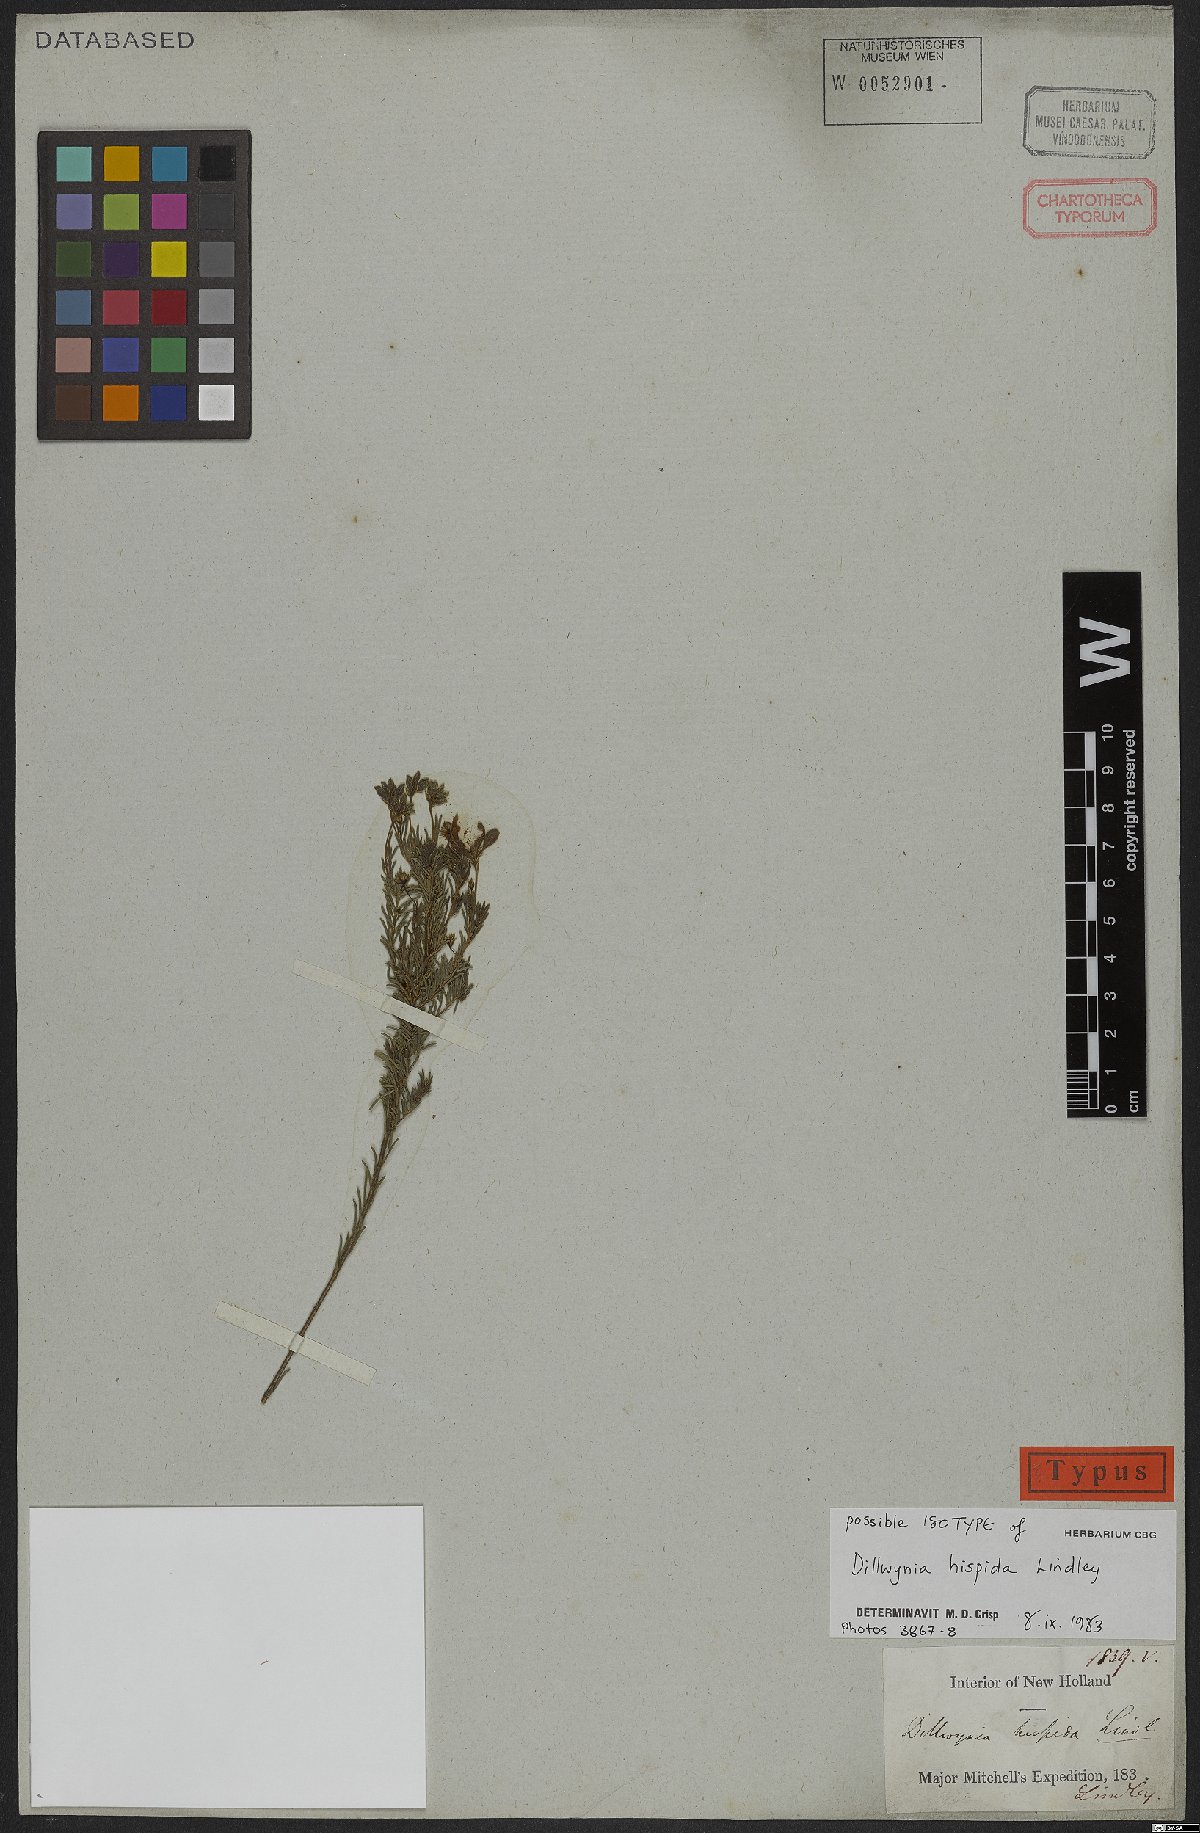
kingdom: Plantae
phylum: Tracheophyta
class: Magnoliopsida
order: Fabales
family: Fabaceae
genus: Dillwynia
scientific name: Dillwynia hispida
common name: Red parrot-pea
